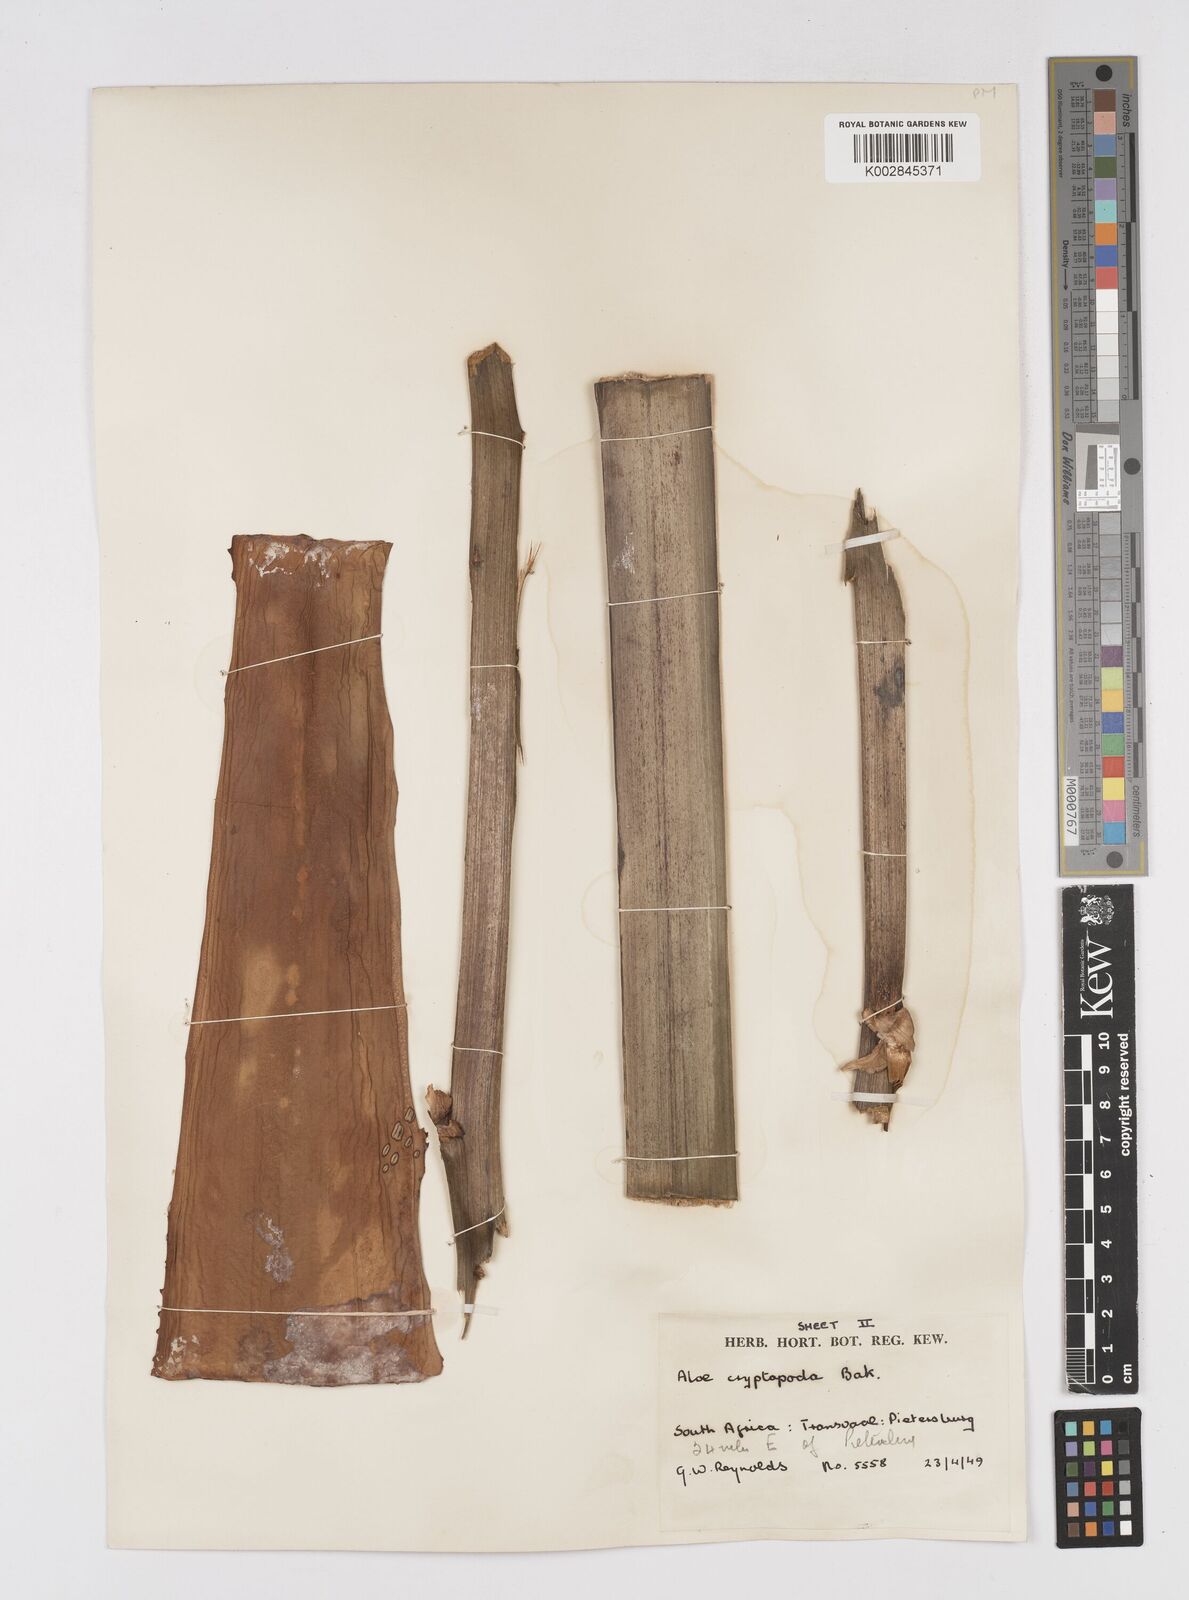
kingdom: Plantae
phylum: Tracheophyta
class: Liliopsida
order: Asparagales
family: Asphodelaceae
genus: Aloe
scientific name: Aloe cryptopoda
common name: Dr. kirk's aloe
